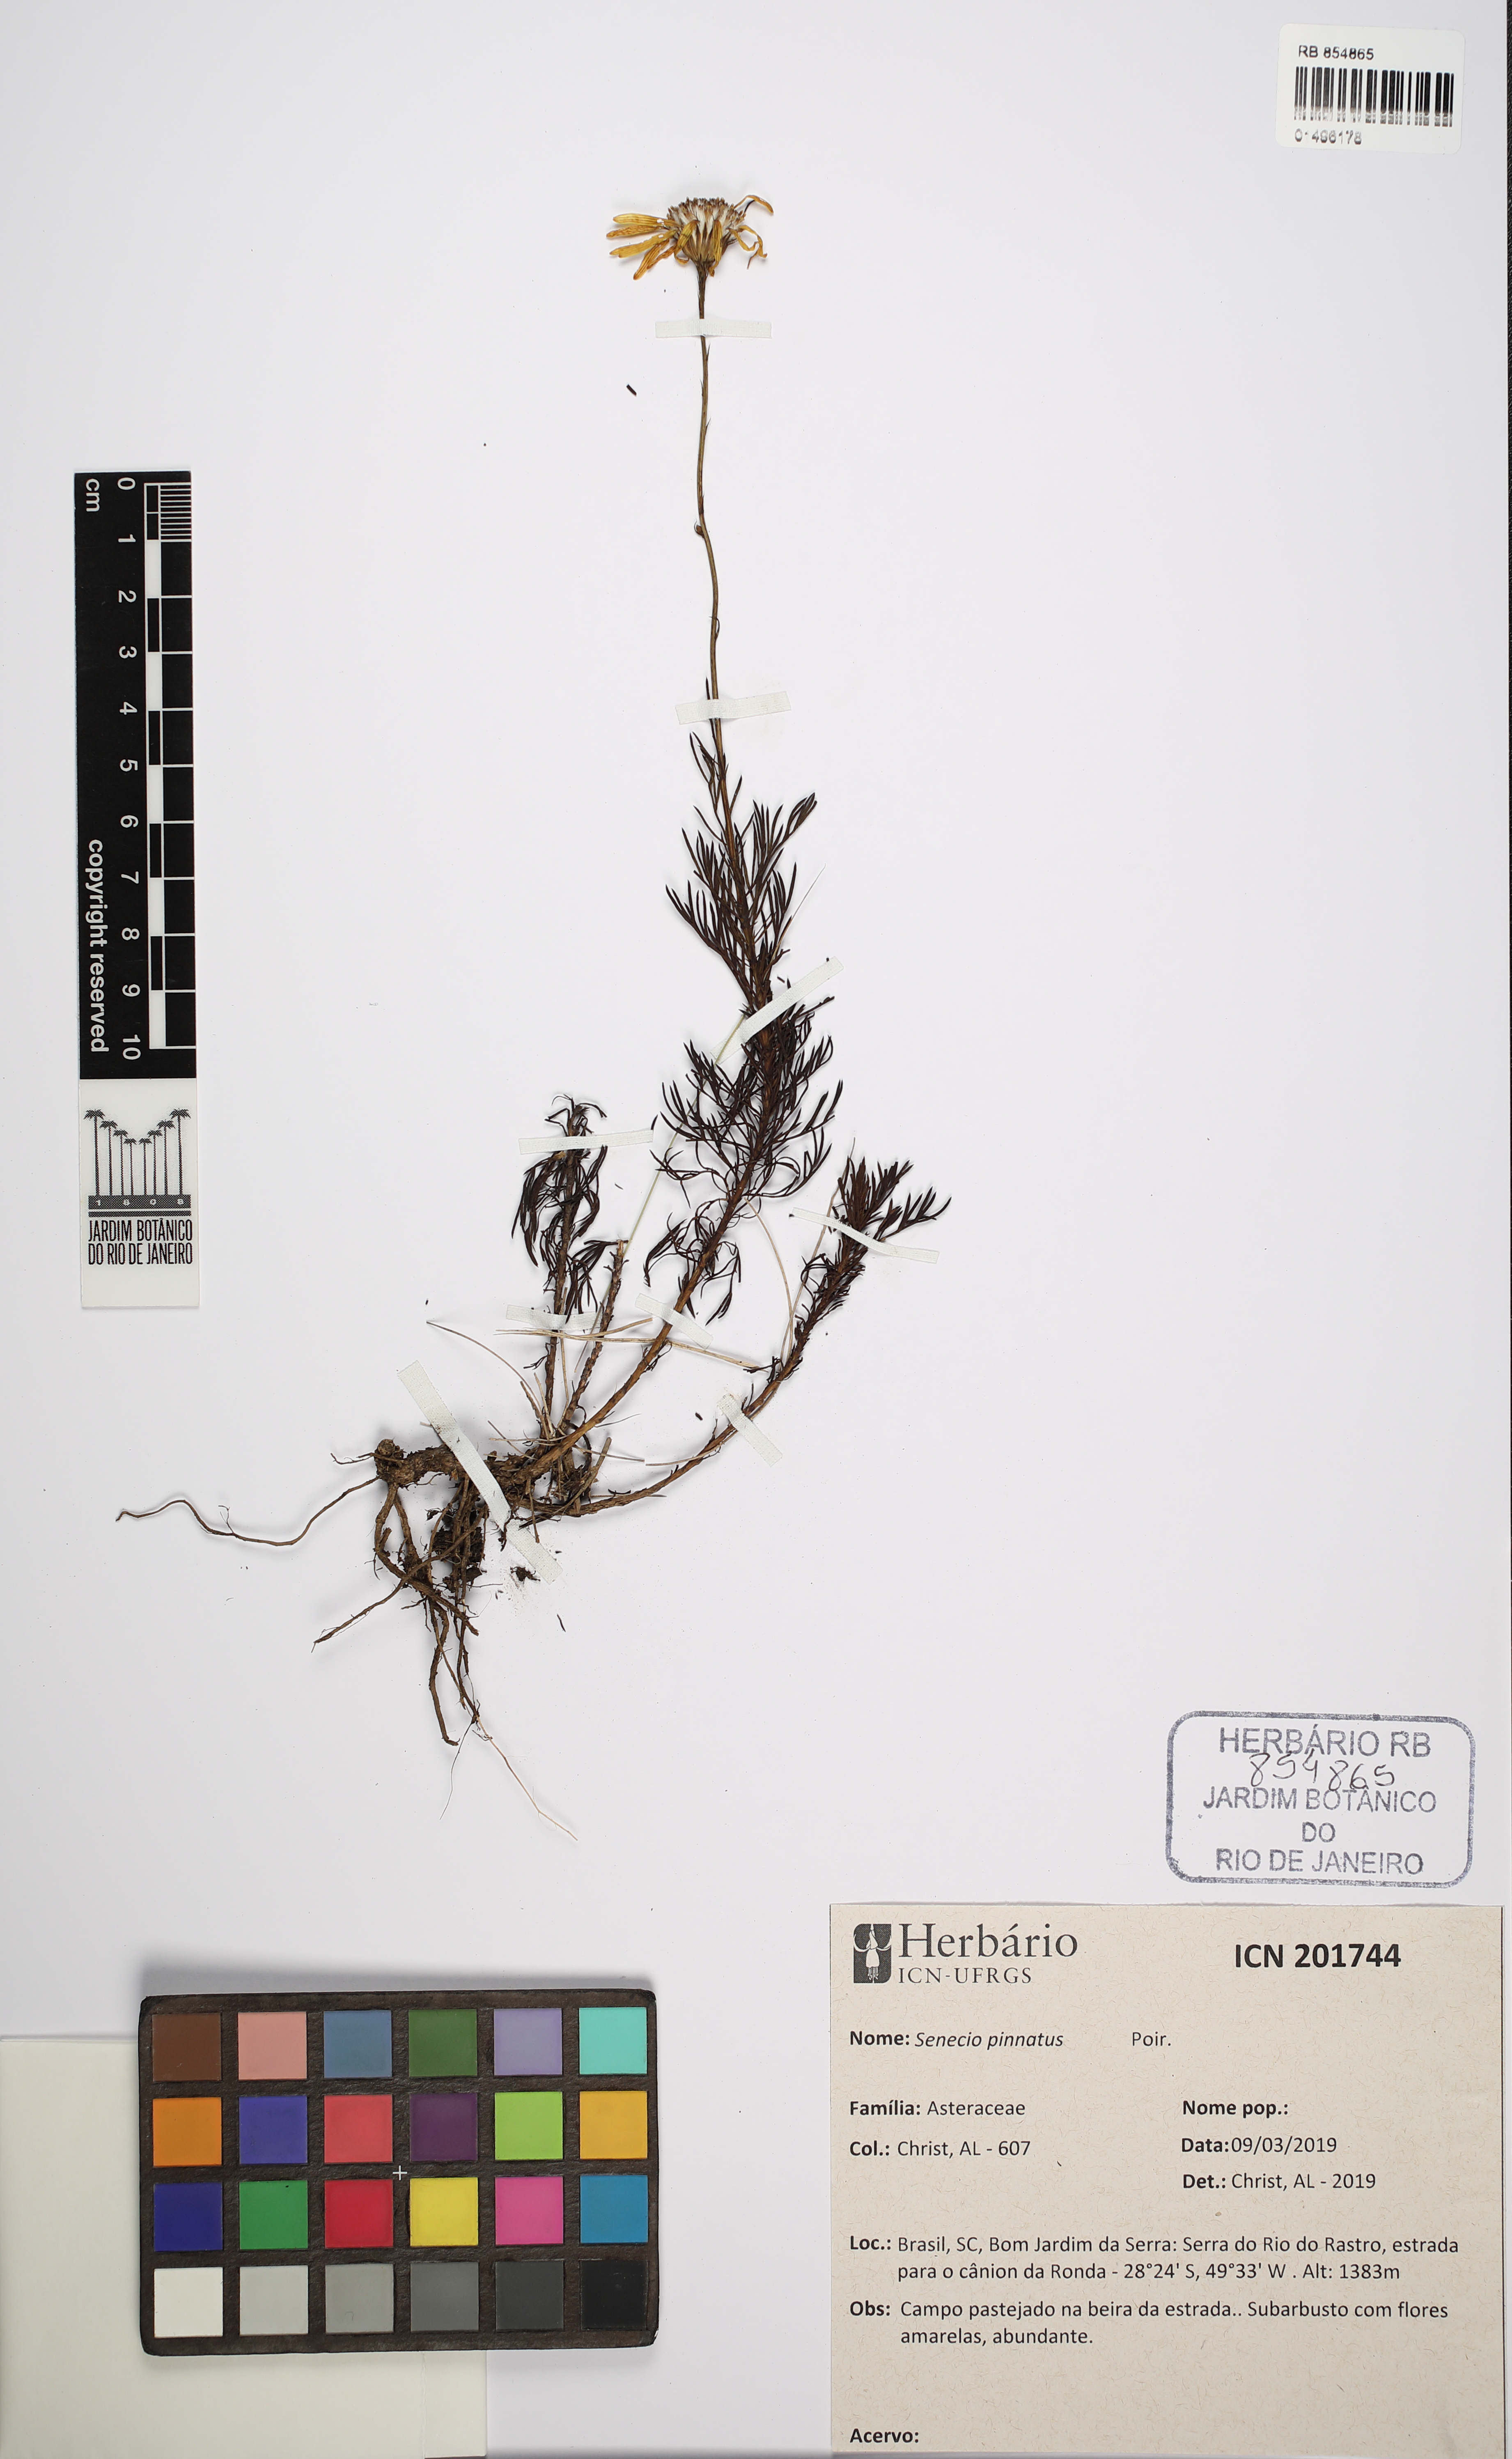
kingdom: Plantae
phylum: Tracheophyta
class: Magnoliopsida
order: Asterales
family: Asteraceae
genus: Senecio
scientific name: Senecio pinnatus
